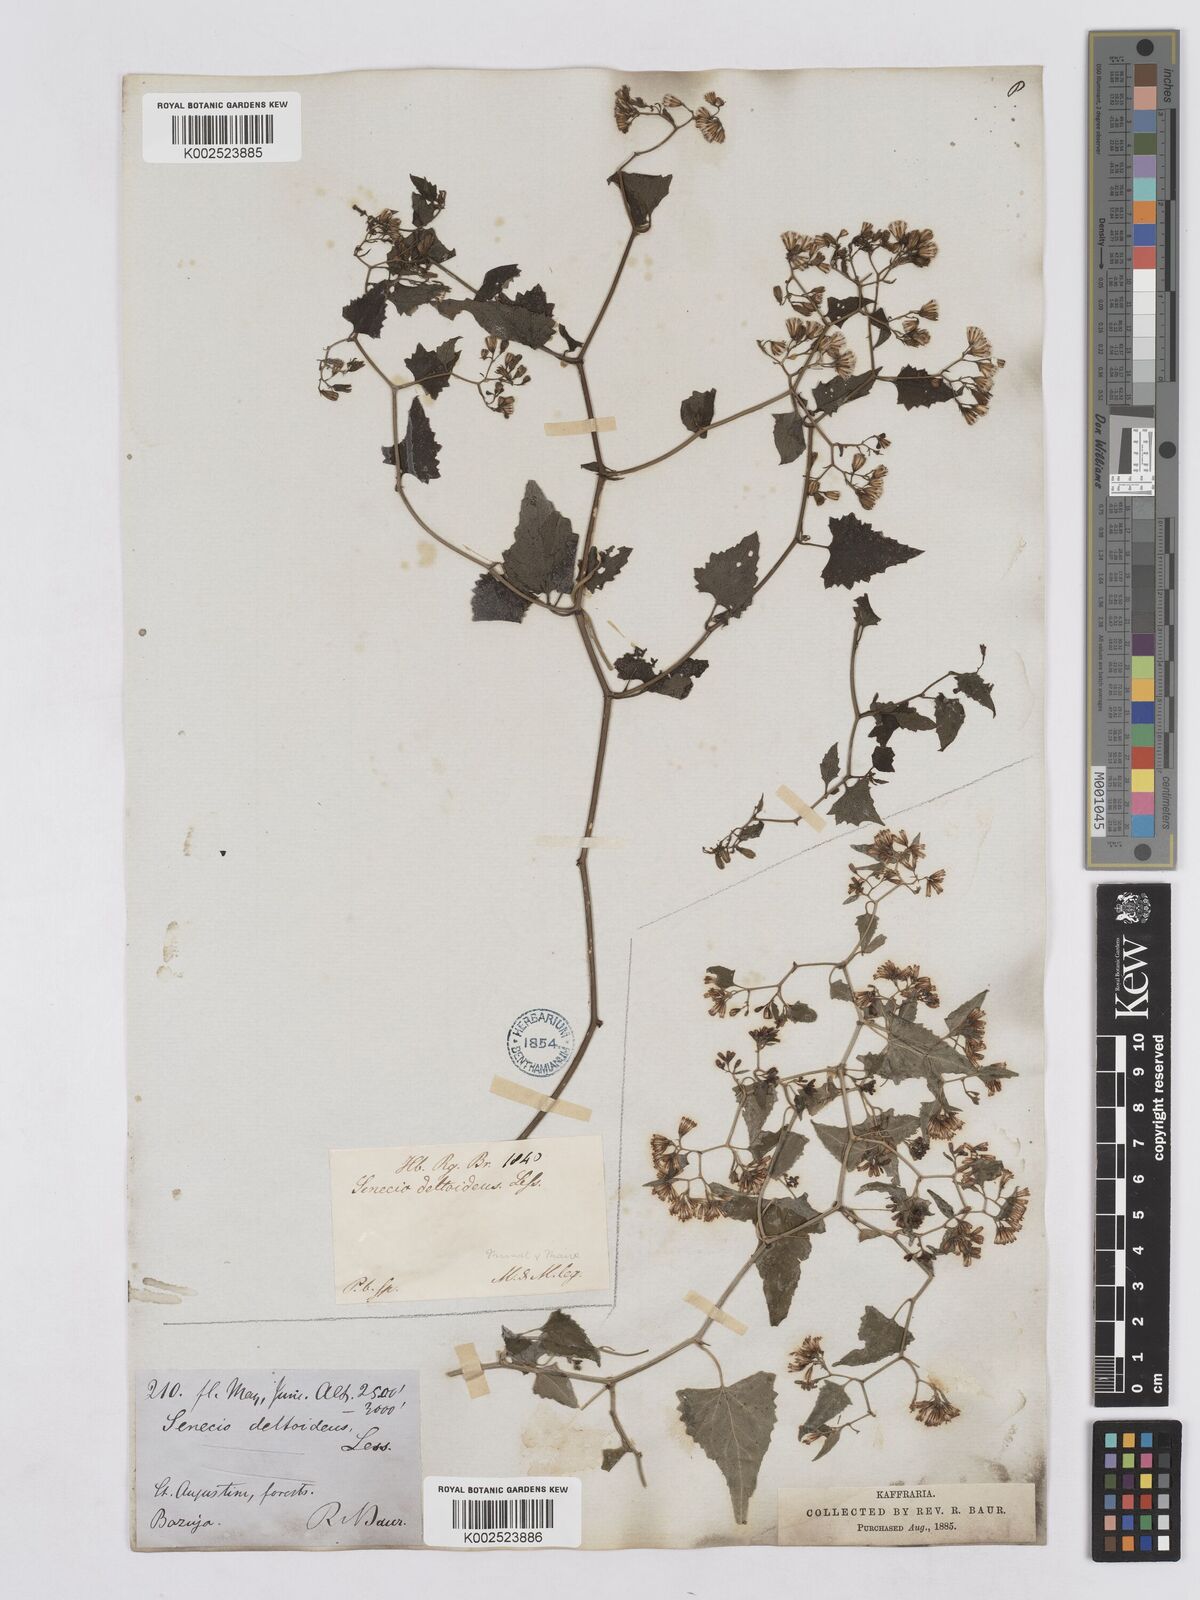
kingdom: Plantae
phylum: Tracheophyta
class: Magnoliopsida
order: Asterales
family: Asteraceae
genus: Senecio
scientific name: Senecio deltoideus
